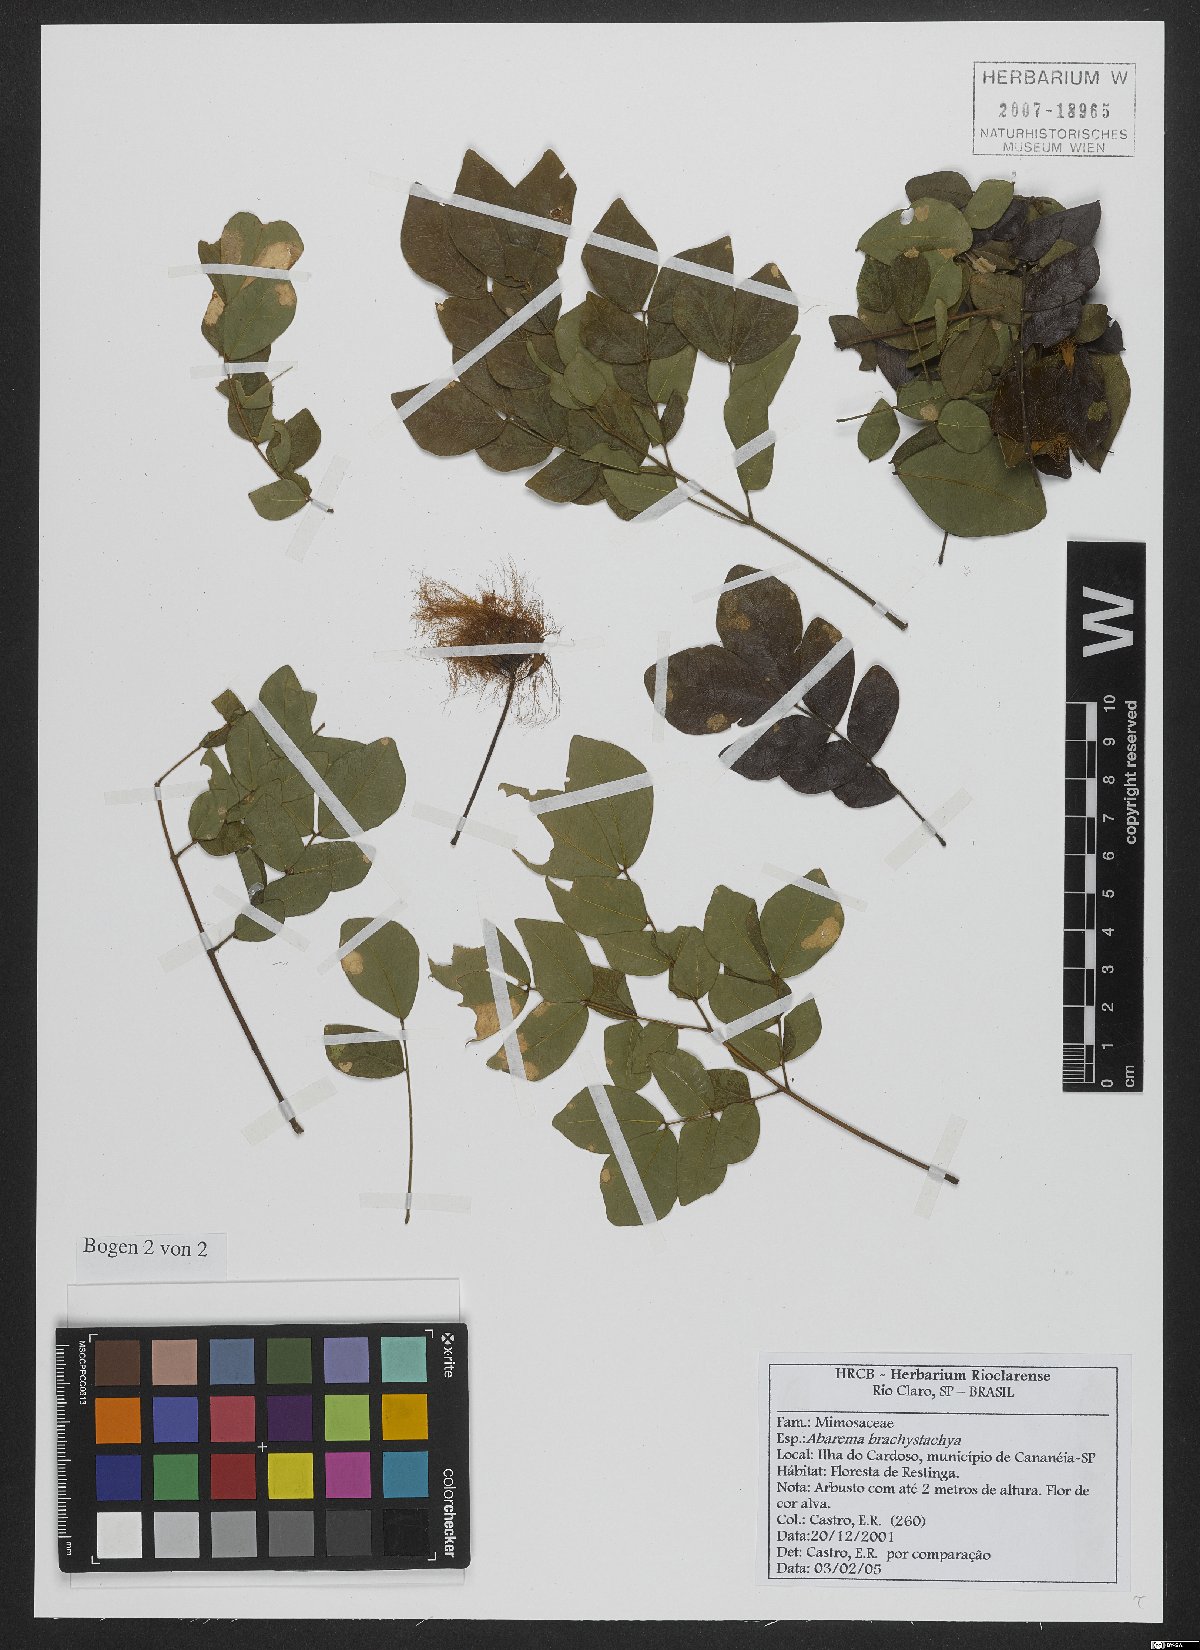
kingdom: Plantae
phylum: Tracheophyta
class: Magnoliopsida
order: Fabales
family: Fabaceae
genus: Jupunba
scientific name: Jupunba brachystachya
